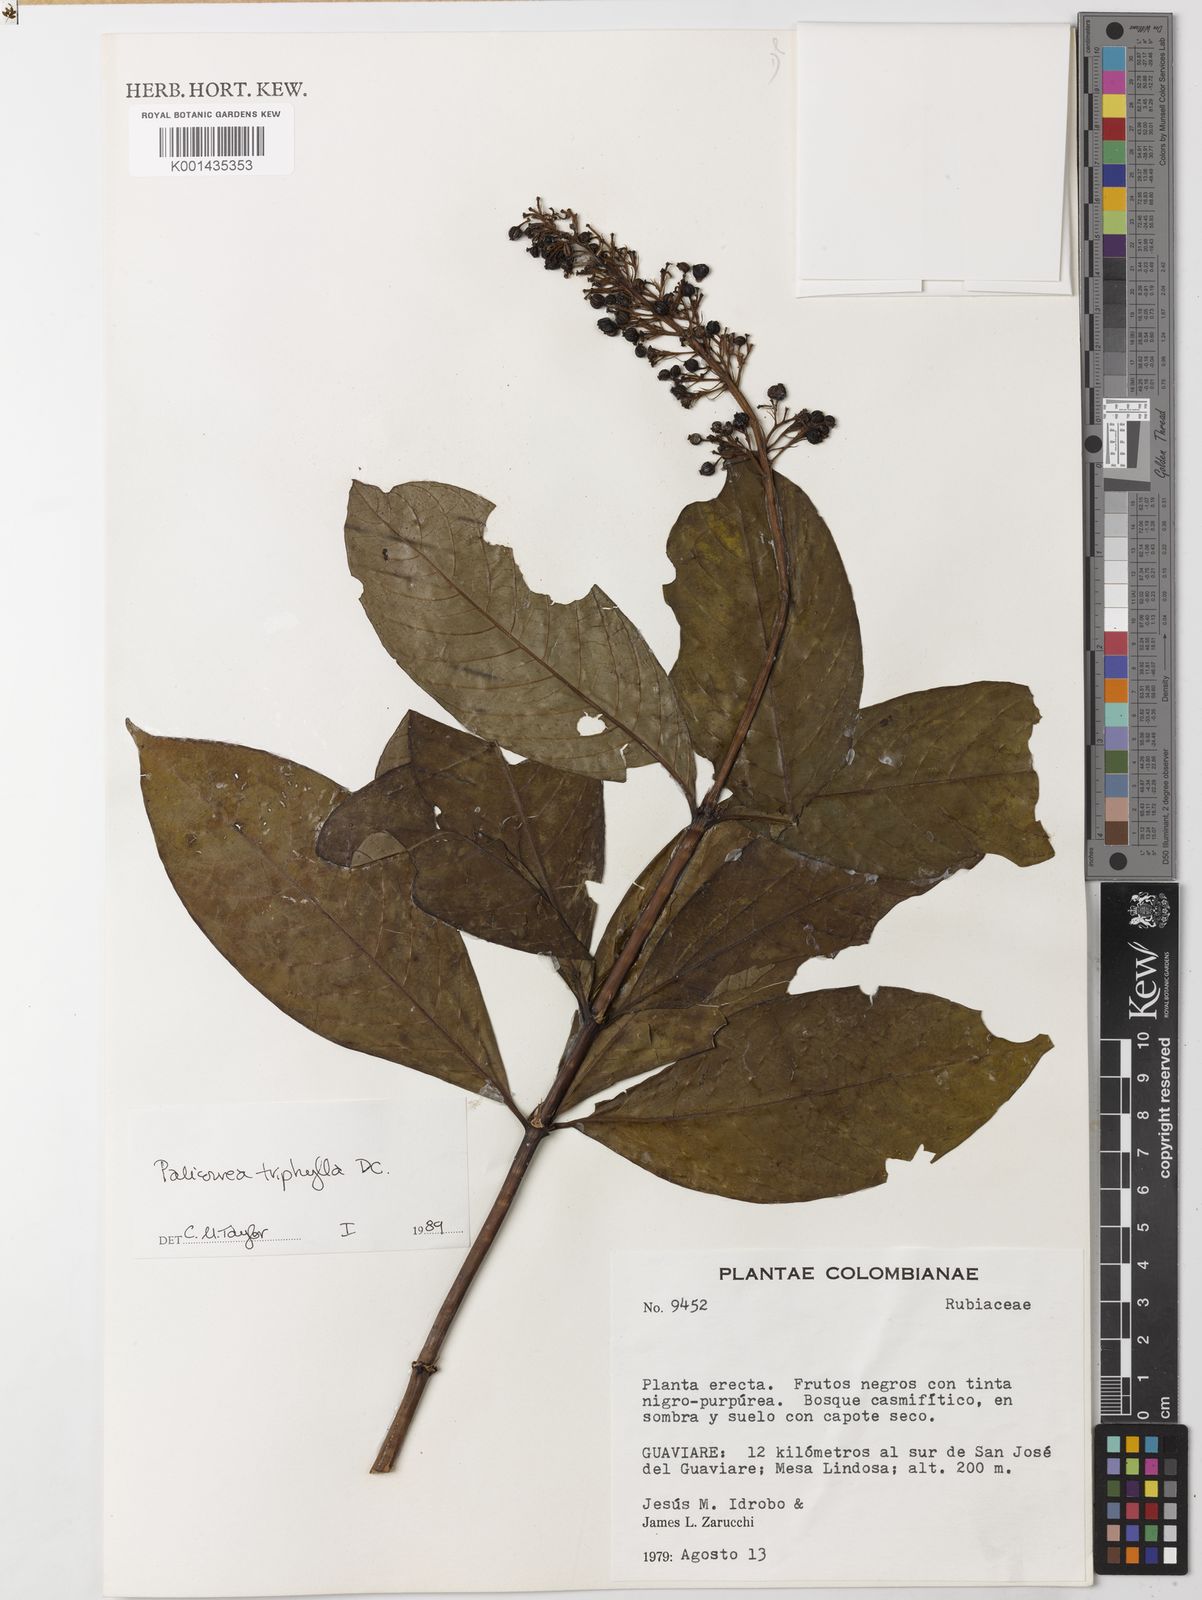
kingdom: Plantae
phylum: Tracheophyta
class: Magnoliopsida
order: Gentianales
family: Rubiaceae
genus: Palicourea
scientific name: Palicourea triphylla
